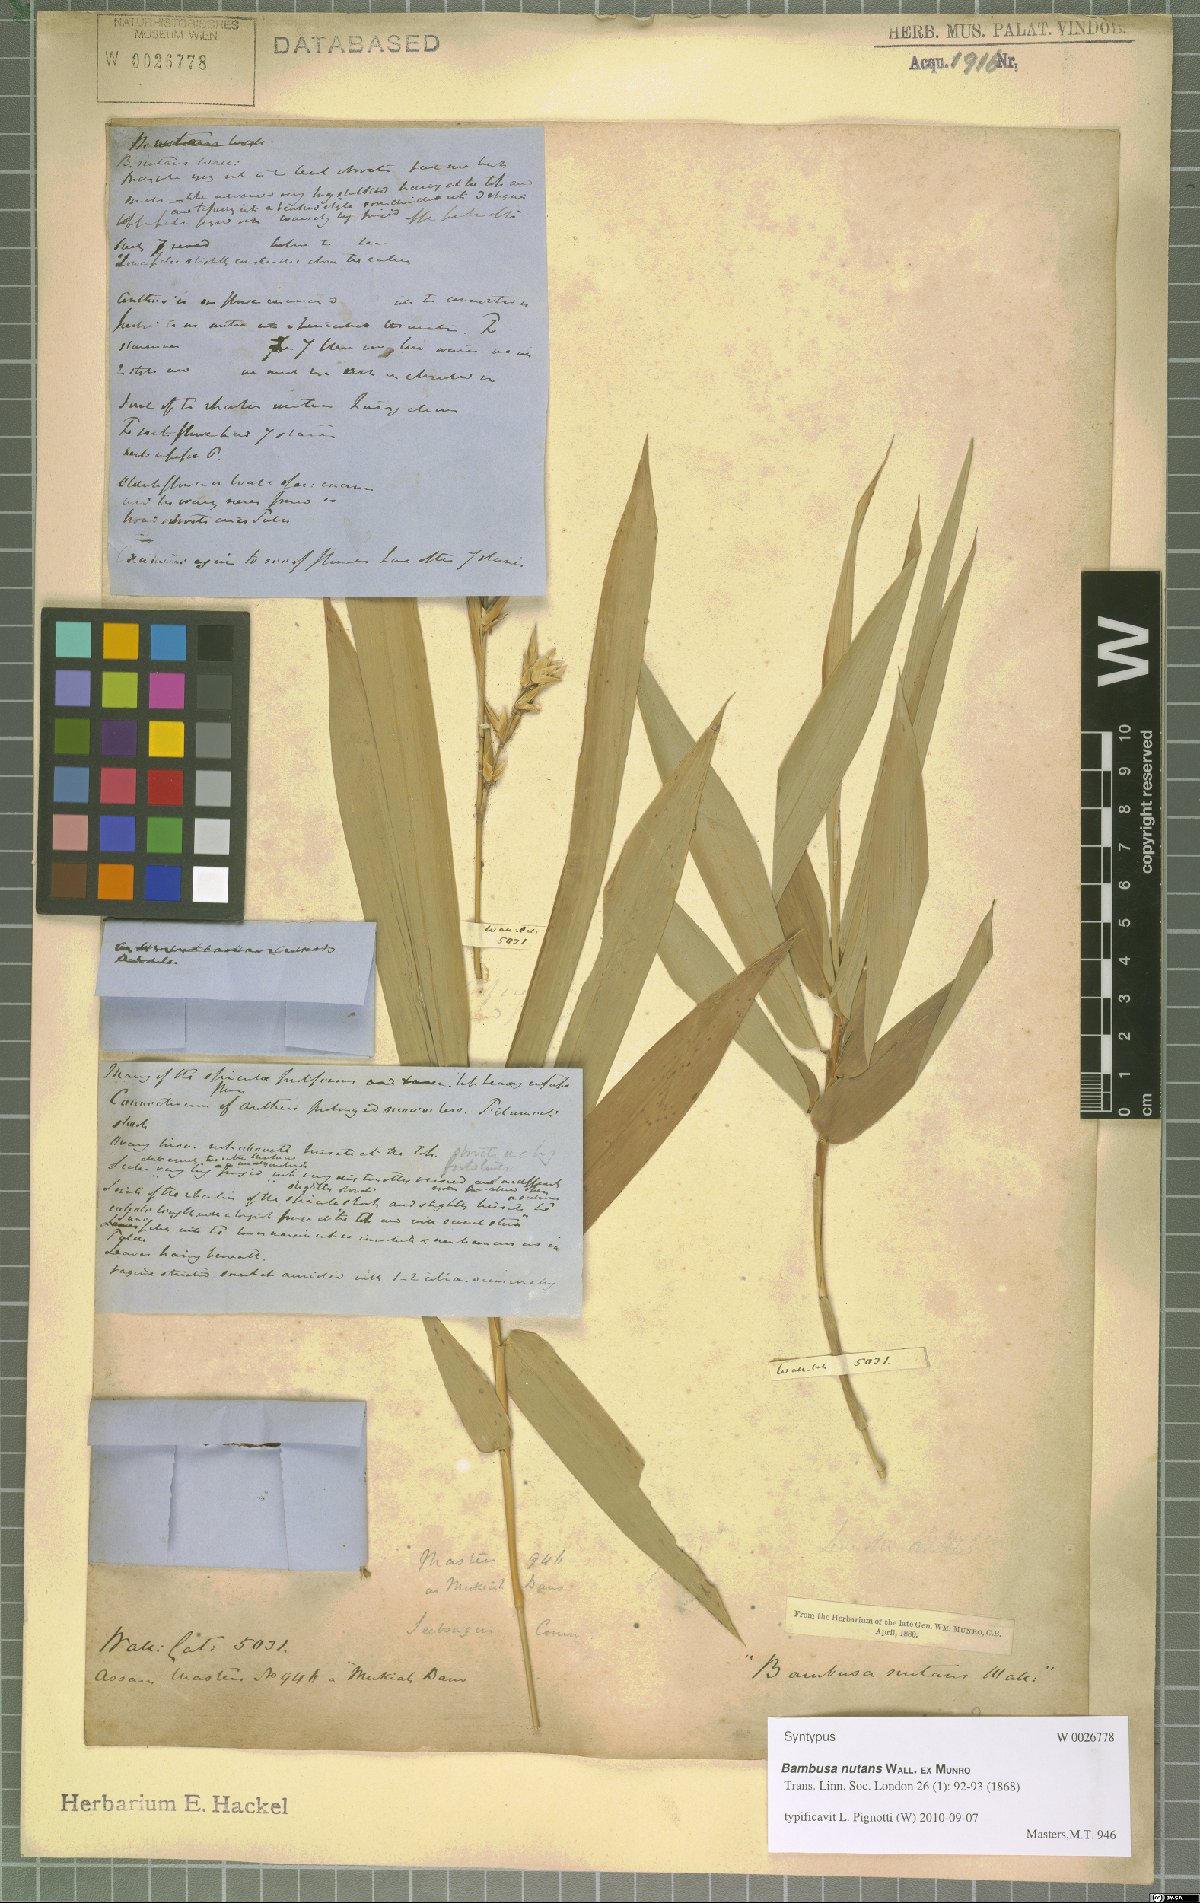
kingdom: Plantae
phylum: Tracheophyta
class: Liliopsida
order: Poales
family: Poaceae
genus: Bambusa
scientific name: Bambusa nutans
